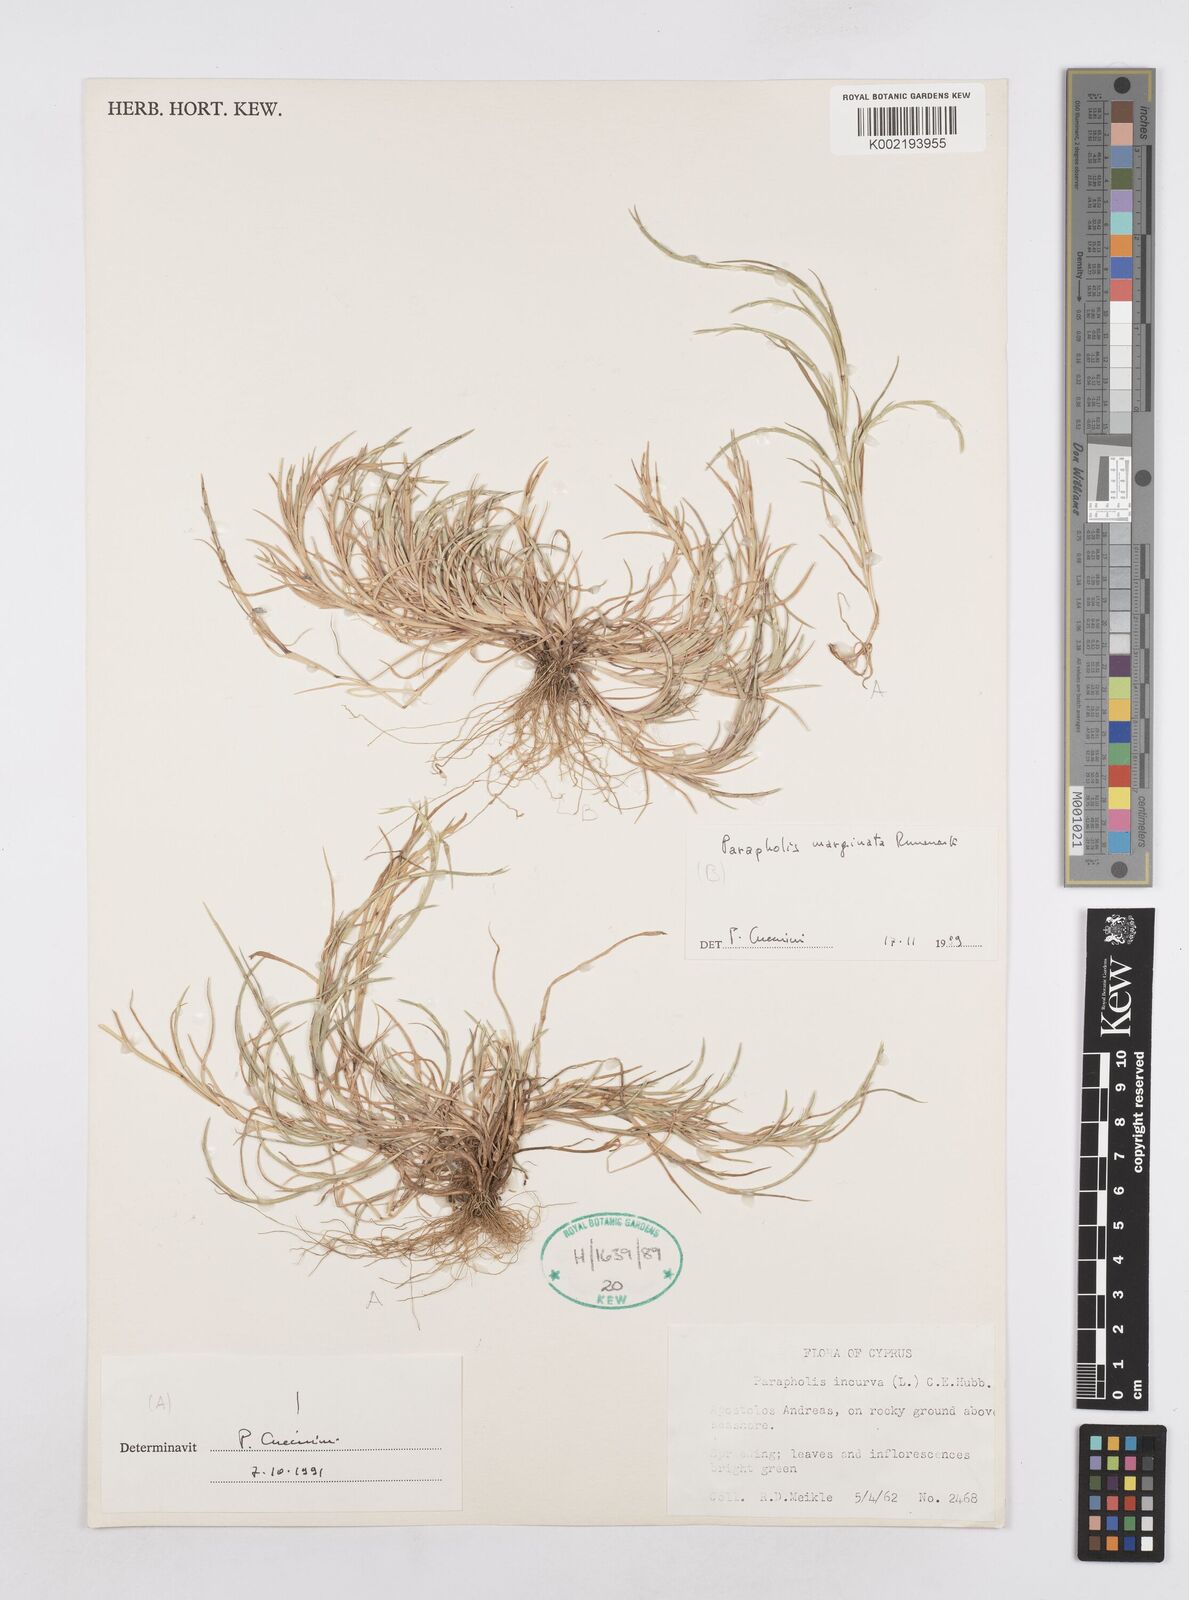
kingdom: Plantae
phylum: Tracheophyta
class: Liliopsida
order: Poales
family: Poaceae
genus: Parapholis
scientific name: Parapholis incurva
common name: Curved sicklegrass
